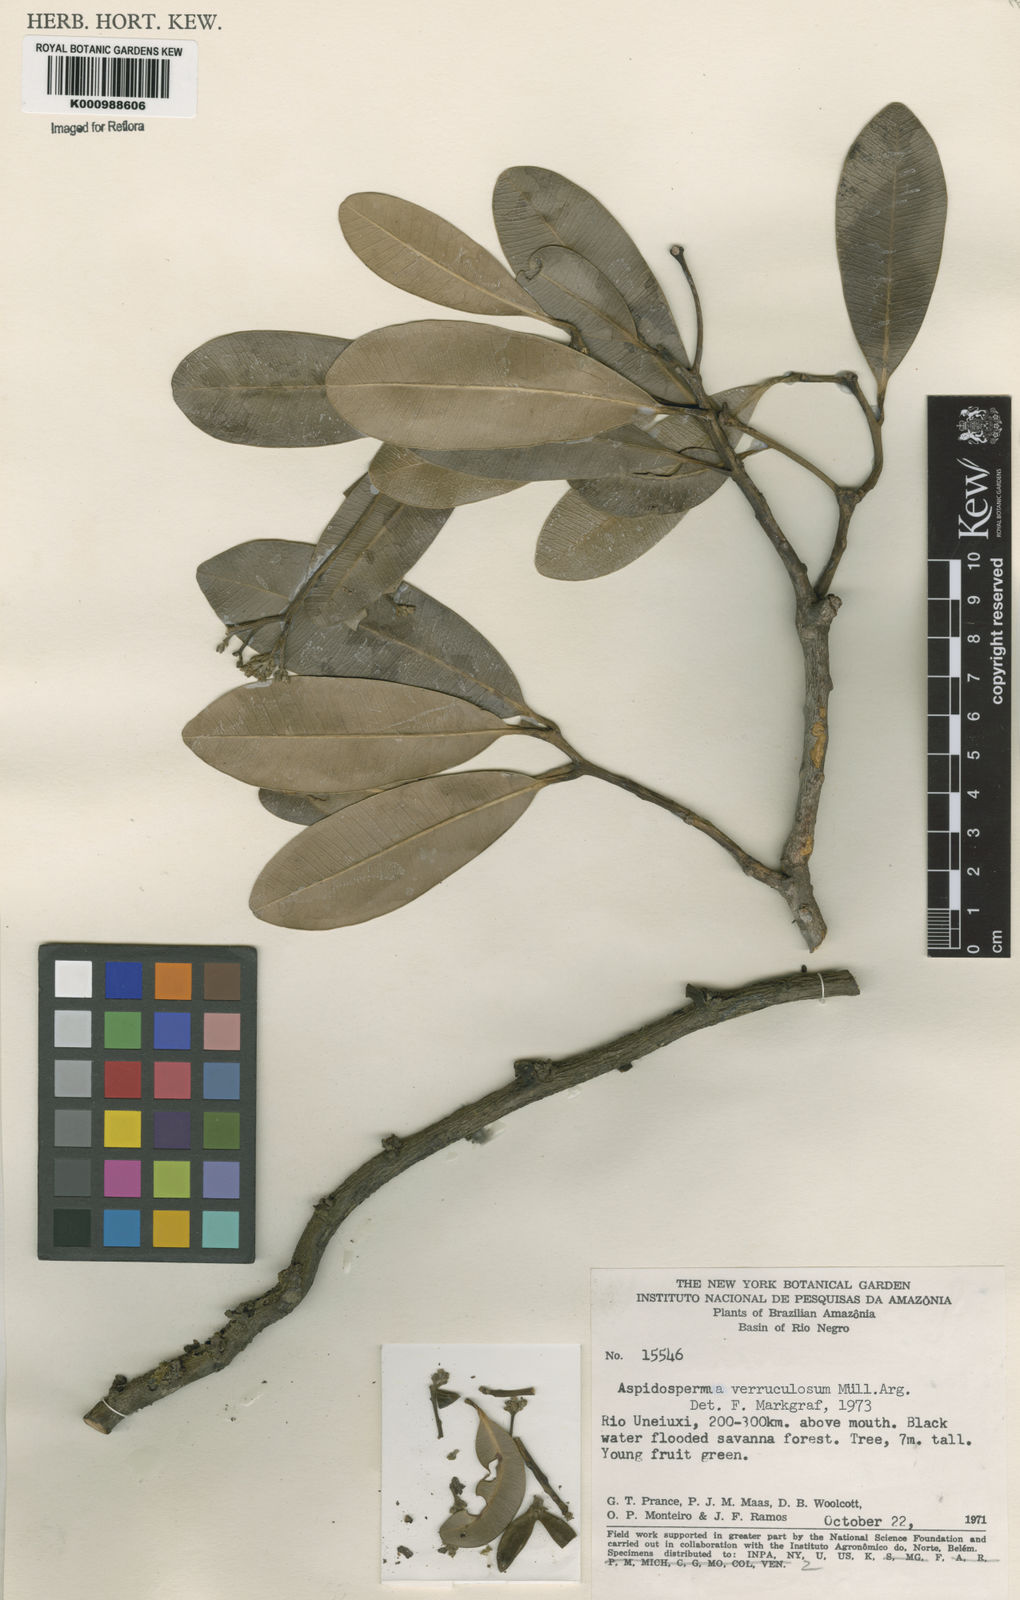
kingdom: Plantae
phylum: Tracheophyta
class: Magnoliopsida
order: Gentianales
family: Apocynaceae
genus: Aspidosperma
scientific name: Aspidosperma
